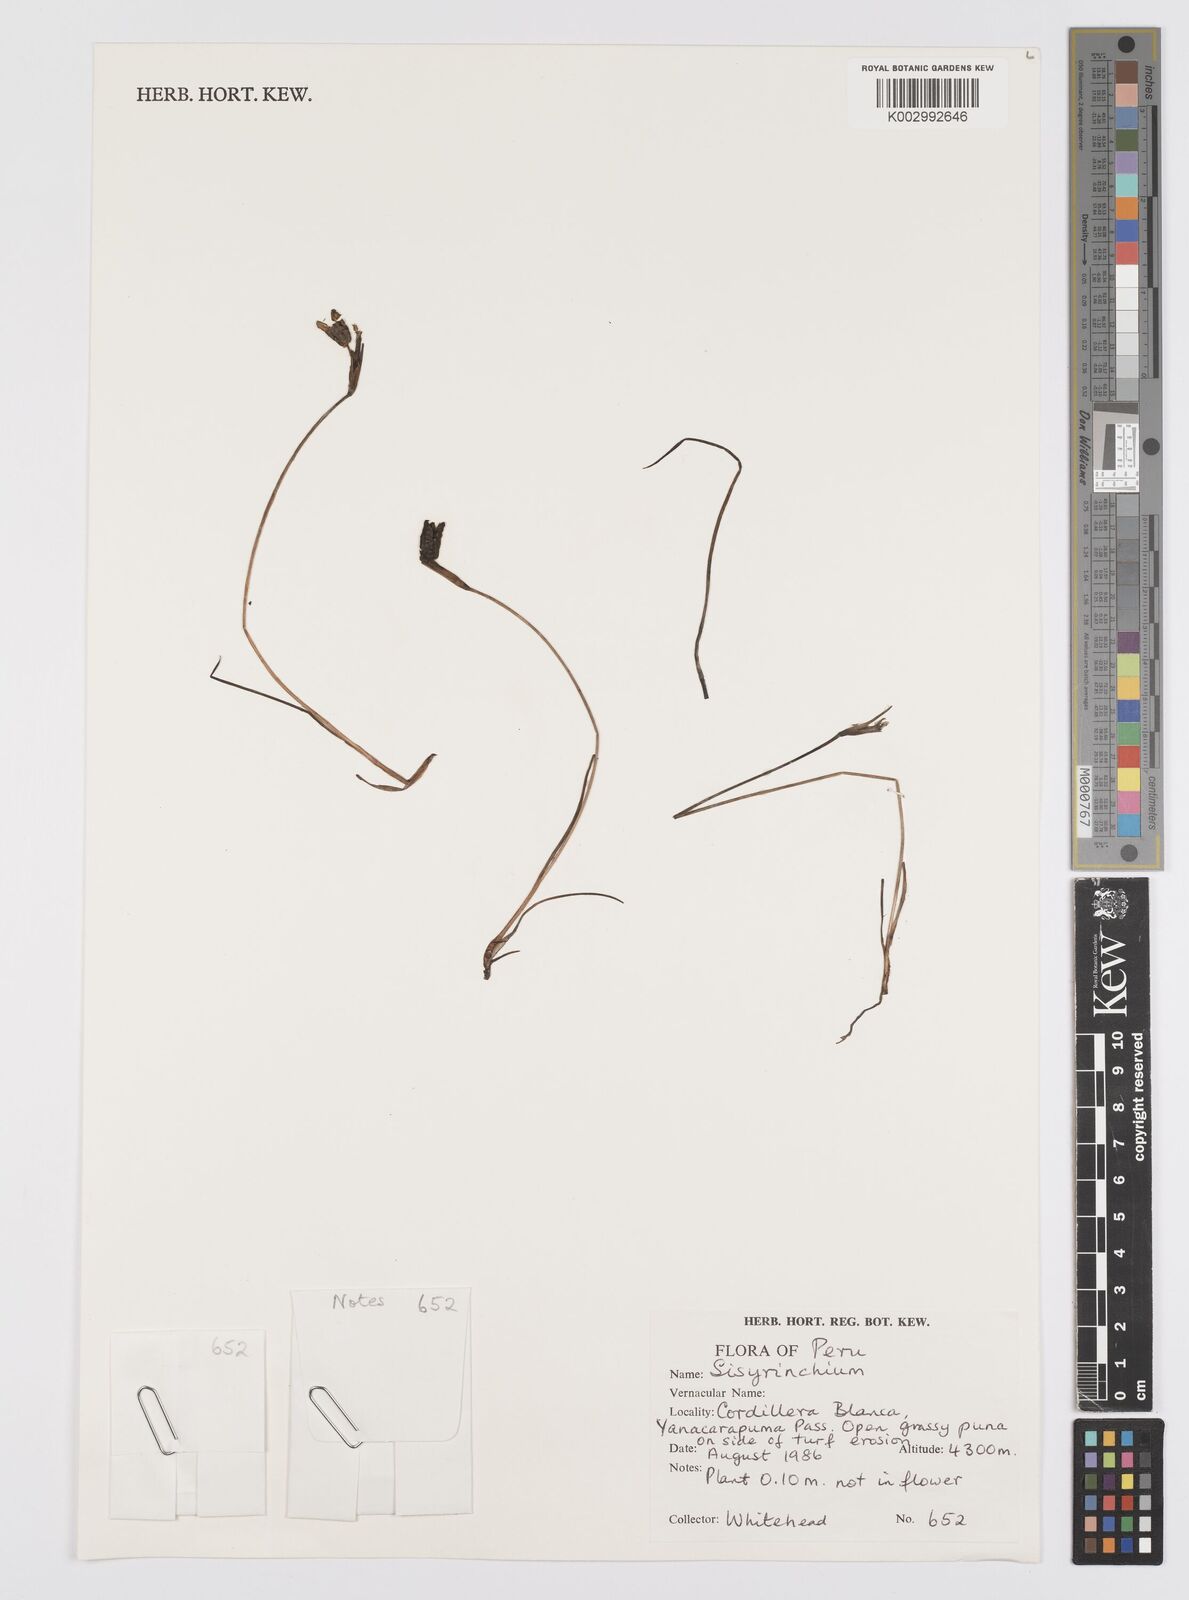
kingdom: Plantae
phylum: Tracheophyta
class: Liliopsida
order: Asparagales
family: Iridaceae
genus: Sisyrinchium
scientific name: Sisyrinchium
